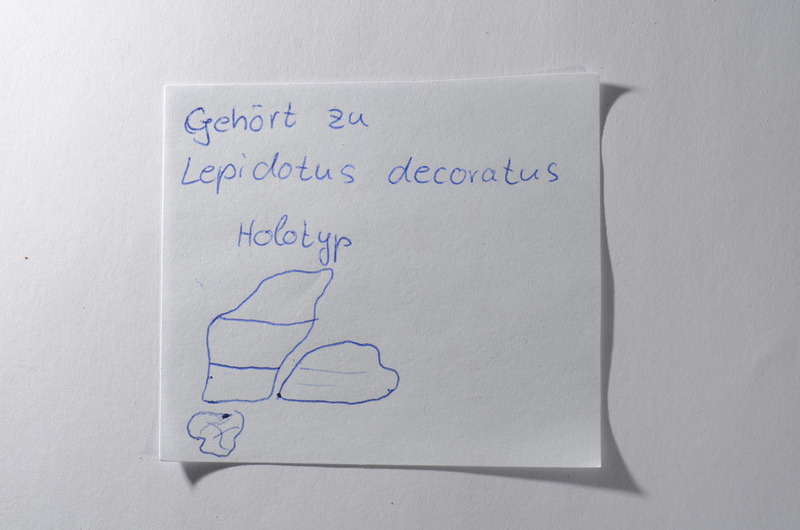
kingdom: Animalia
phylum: Chordata
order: Lepisosteiformes
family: Lepidotidae
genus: Scheenstia
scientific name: Scheenstia decoratus
